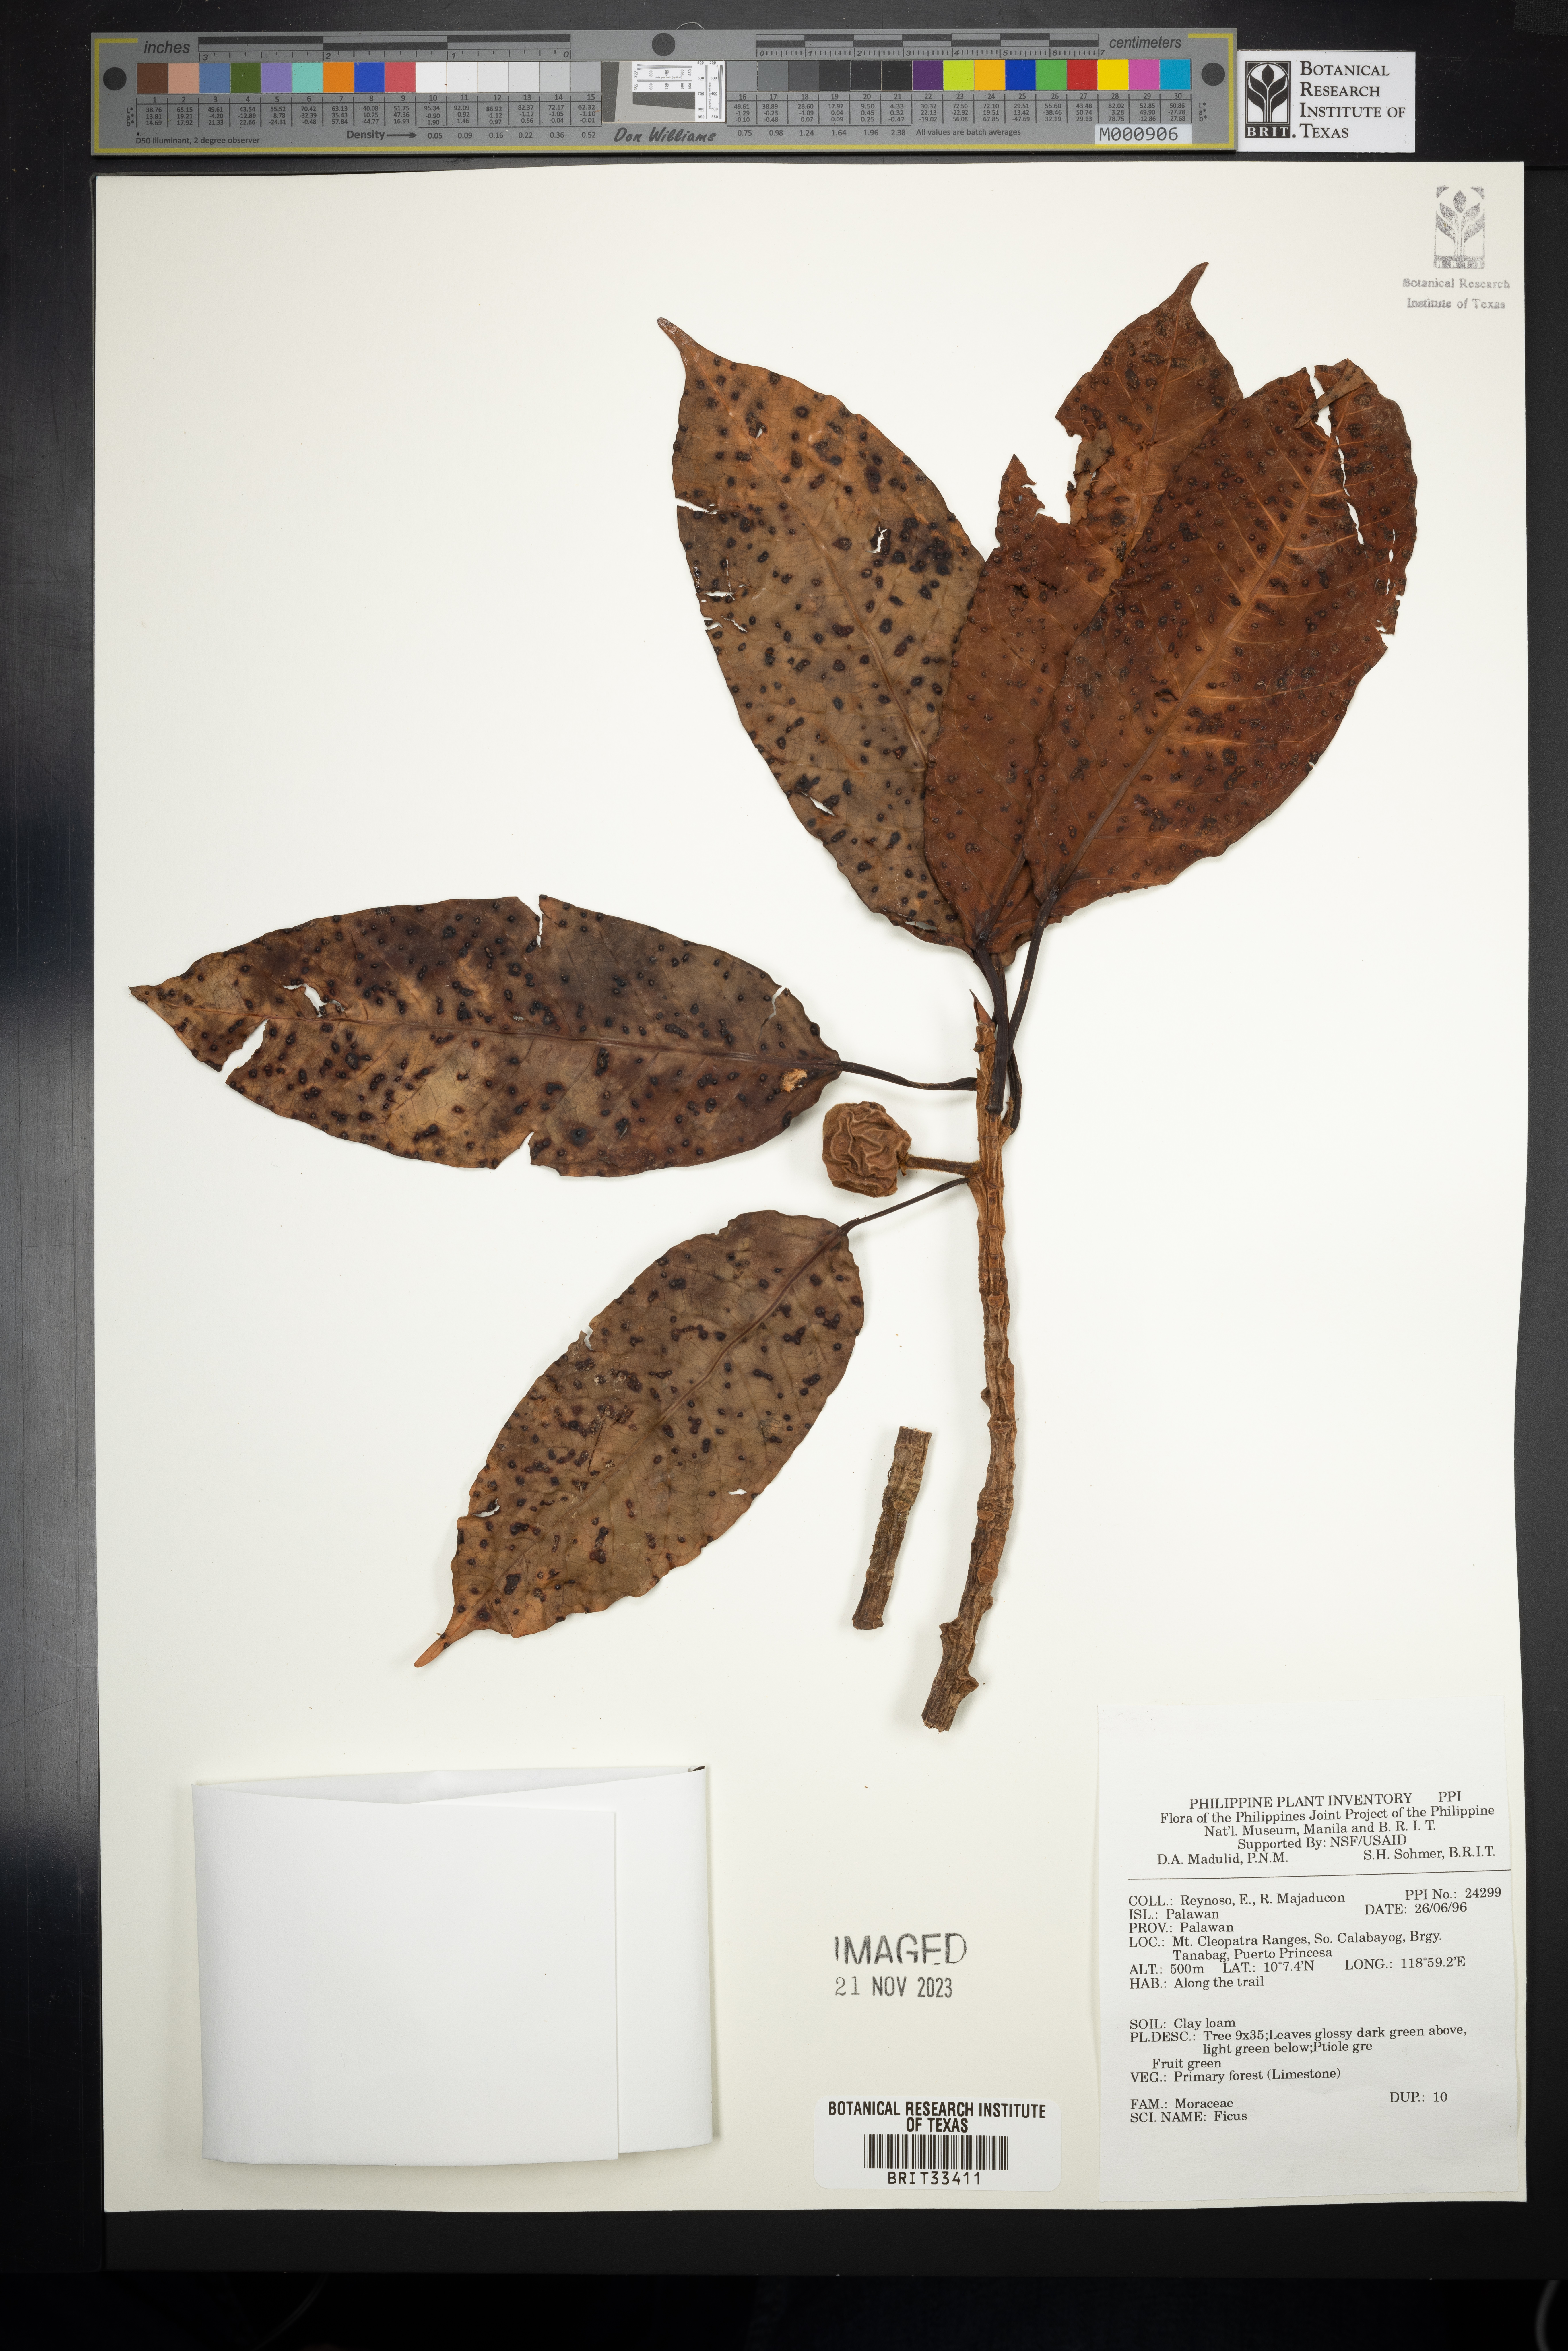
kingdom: Plantae
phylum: Tracheophyta
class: Magnoliopsida
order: Rosales
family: Moraceae
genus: Ficus
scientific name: Ficus
